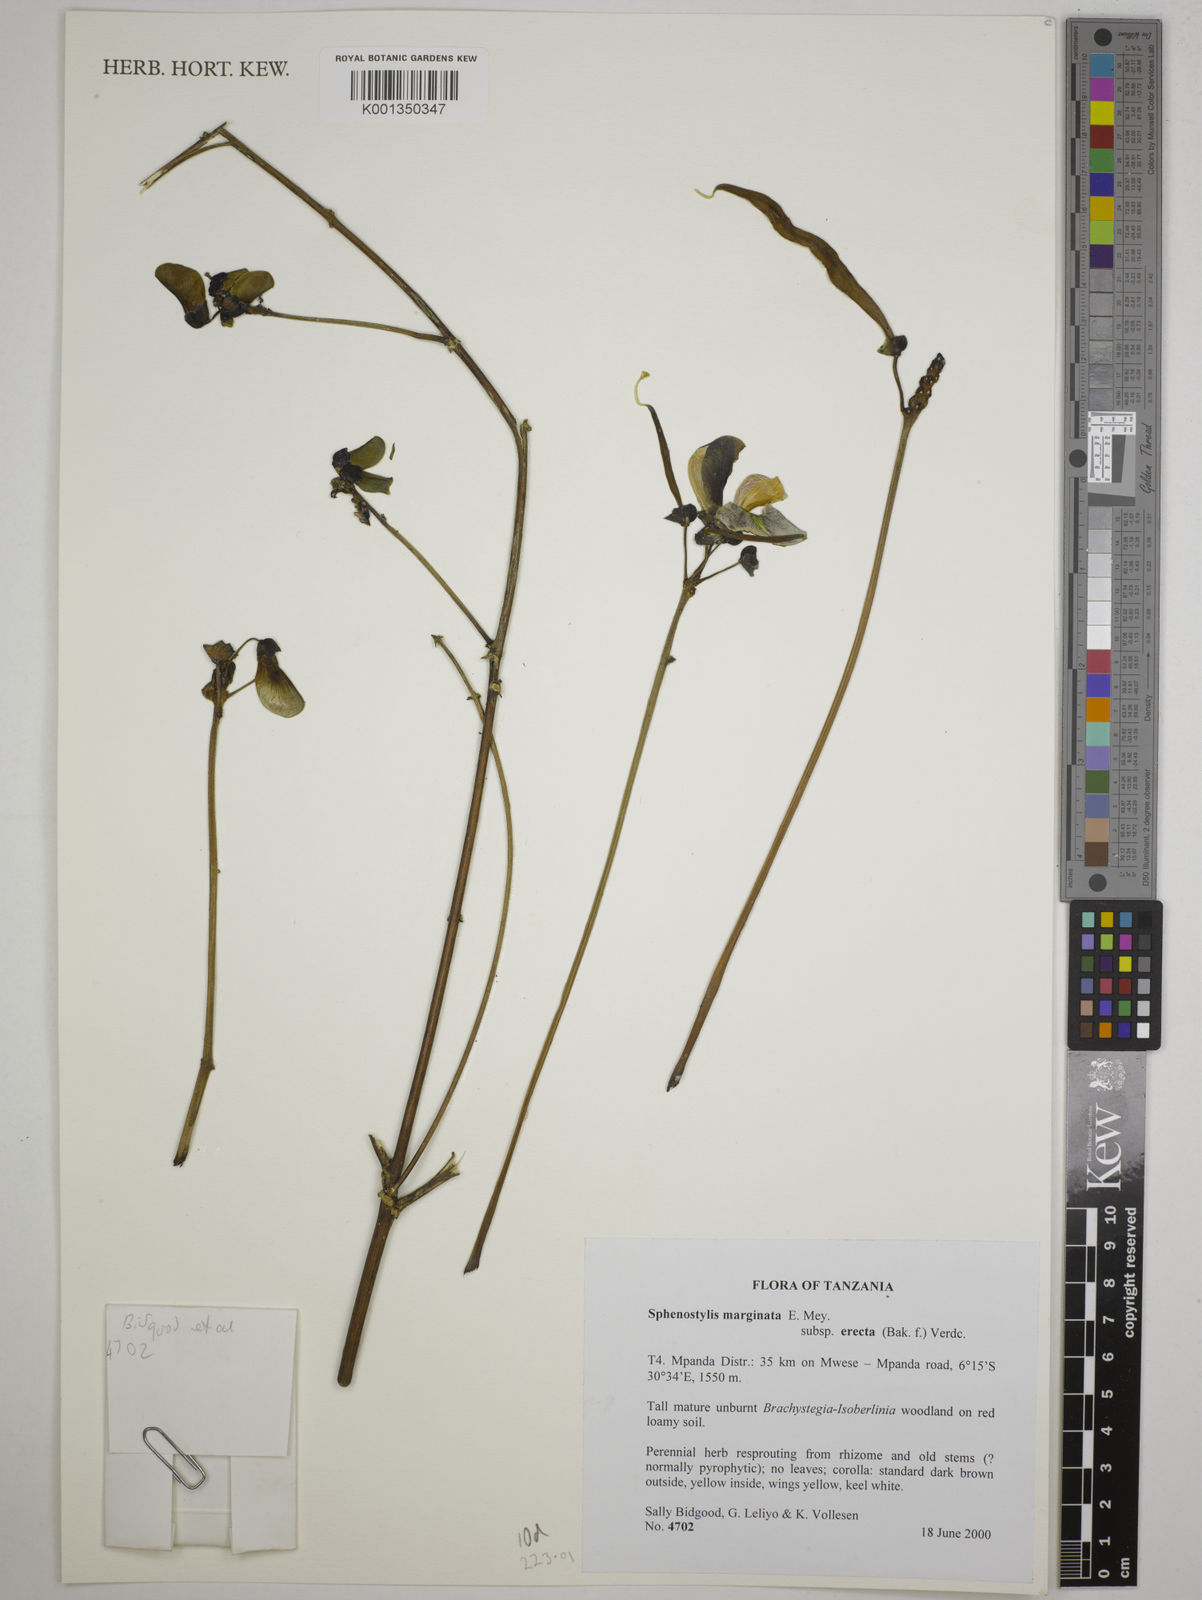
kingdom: Plantae
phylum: Tracheophyta
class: Magnoliopsida
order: Fabales
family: Fabaceae
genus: Sphenostylis
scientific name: Sphenostylis
